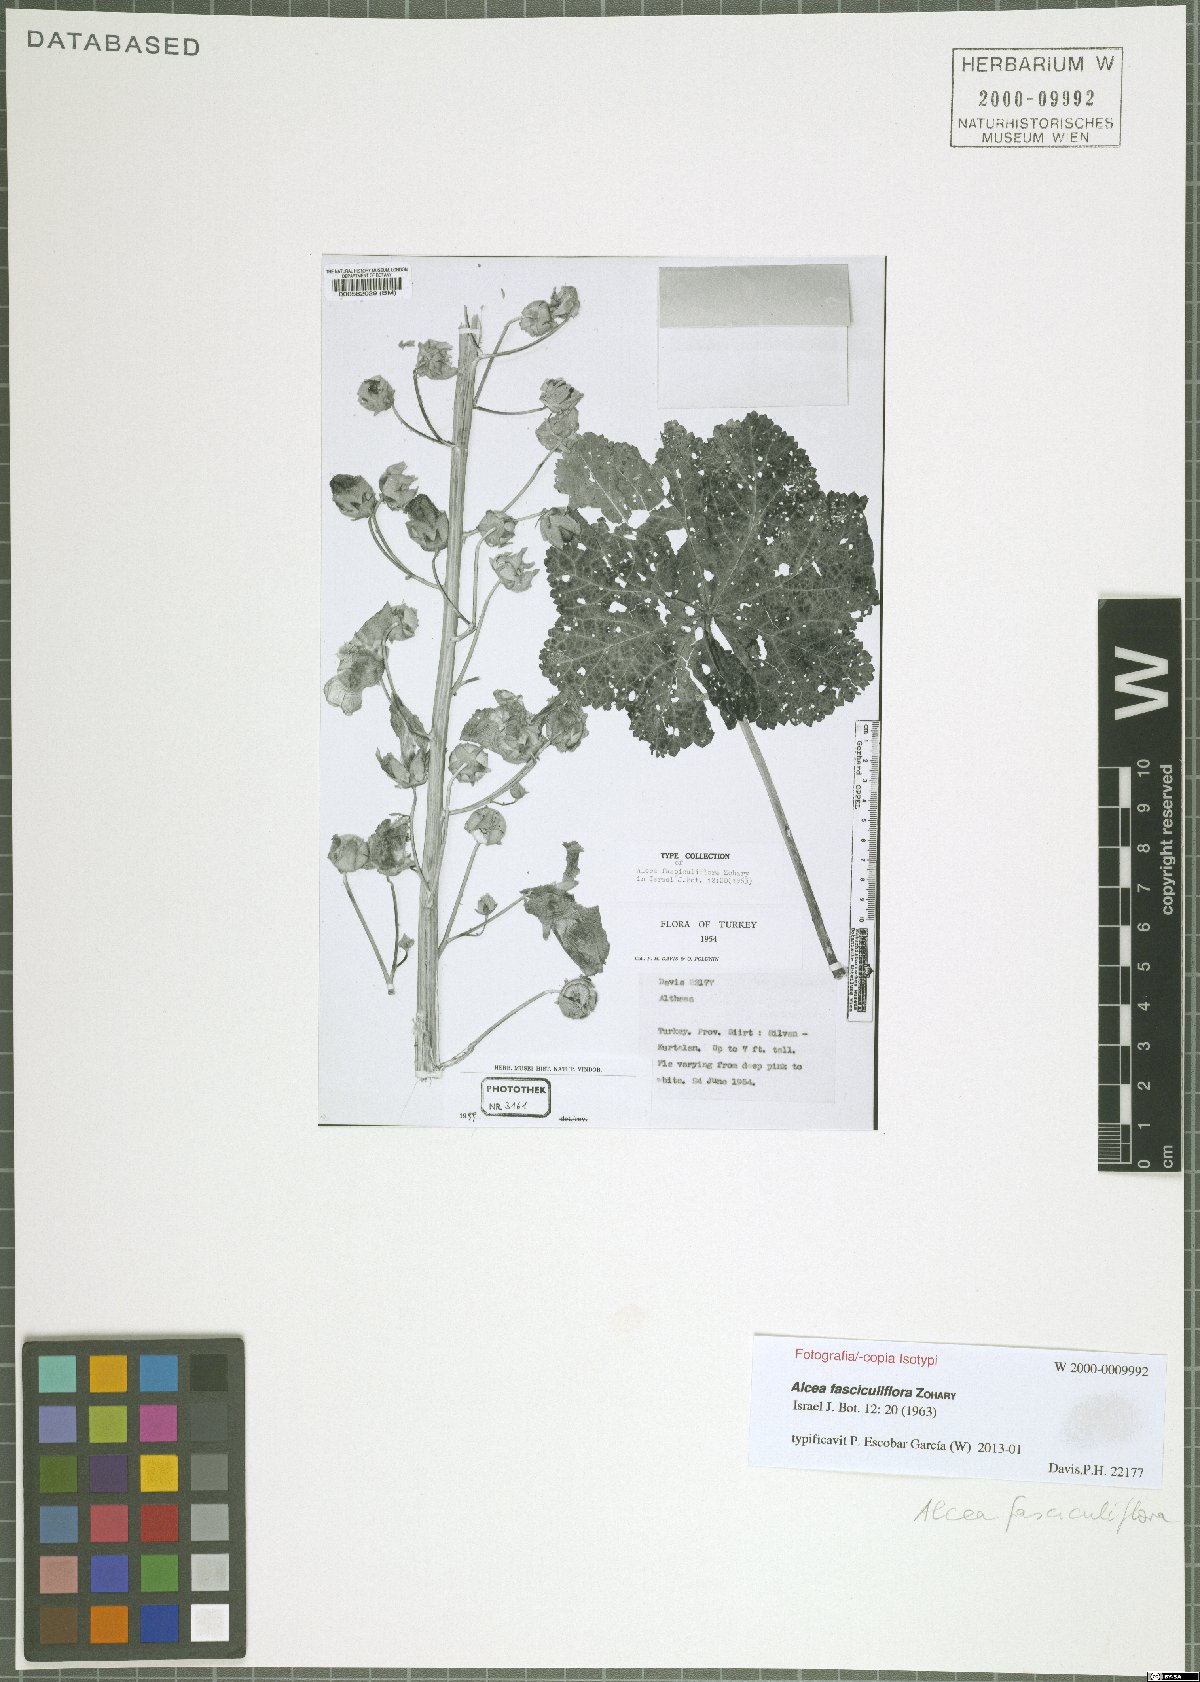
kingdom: Plantae
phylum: Tracheophyta
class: Magnoliopsida
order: Malvales
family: Malvaceae
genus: Alcea
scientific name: Alcea fasciculiflora
